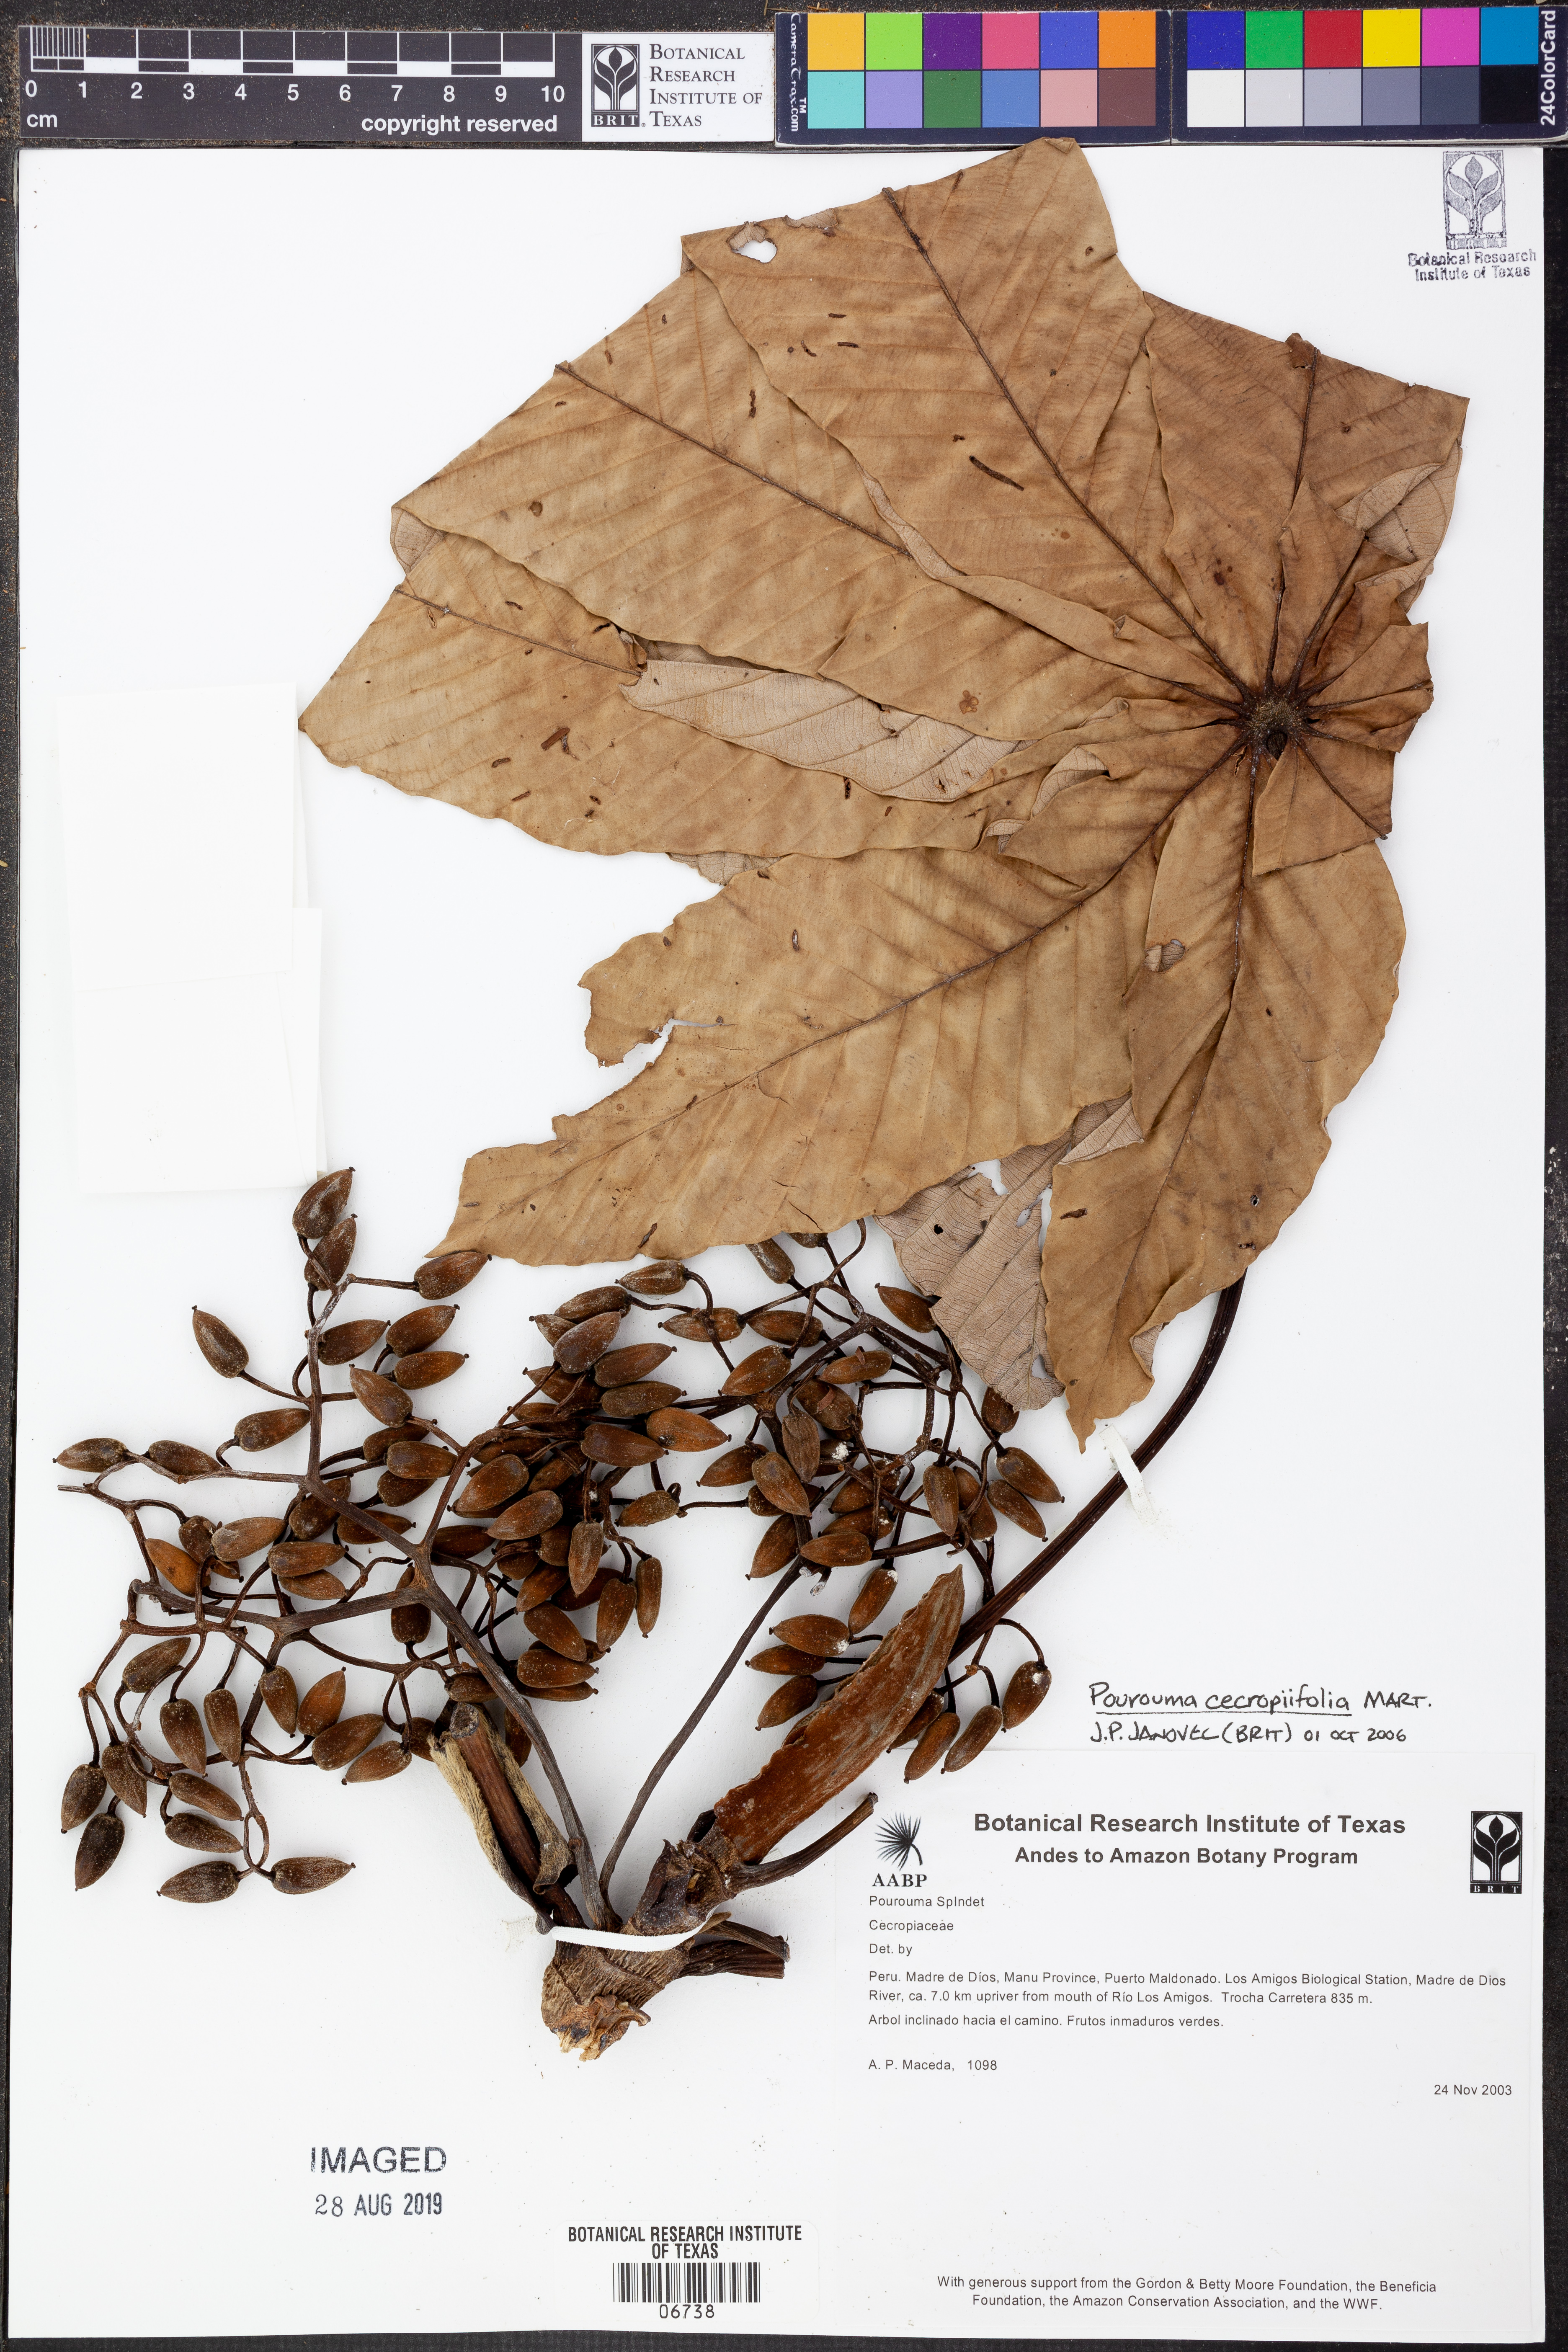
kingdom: Plantae
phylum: Tracheophyta
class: Magnoliopsida
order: Rosales
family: Urticaceae
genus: Pourouma
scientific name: Pourouma
